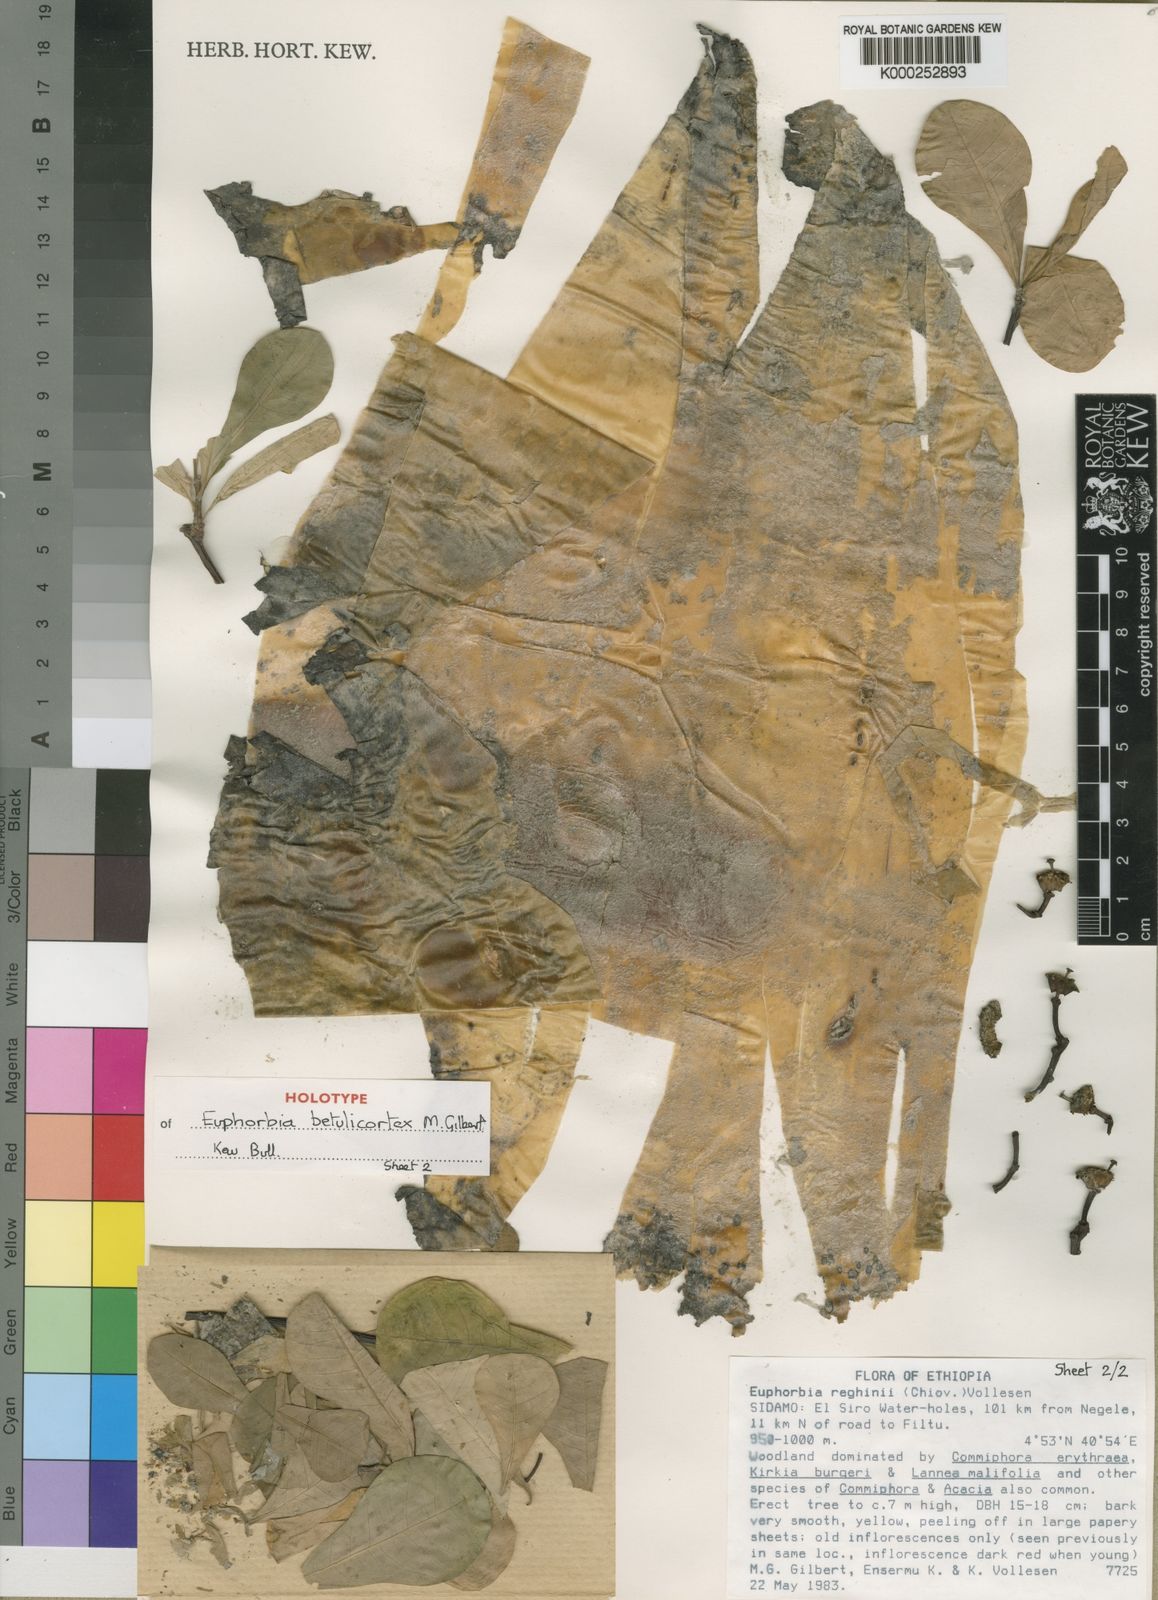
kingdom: Plantae
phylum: Tracheophyta
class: Magnoliopsida
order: Malpighiales
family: Euphorbiaceae
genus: Euphorbia
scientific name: Euphorbia betulicortex
